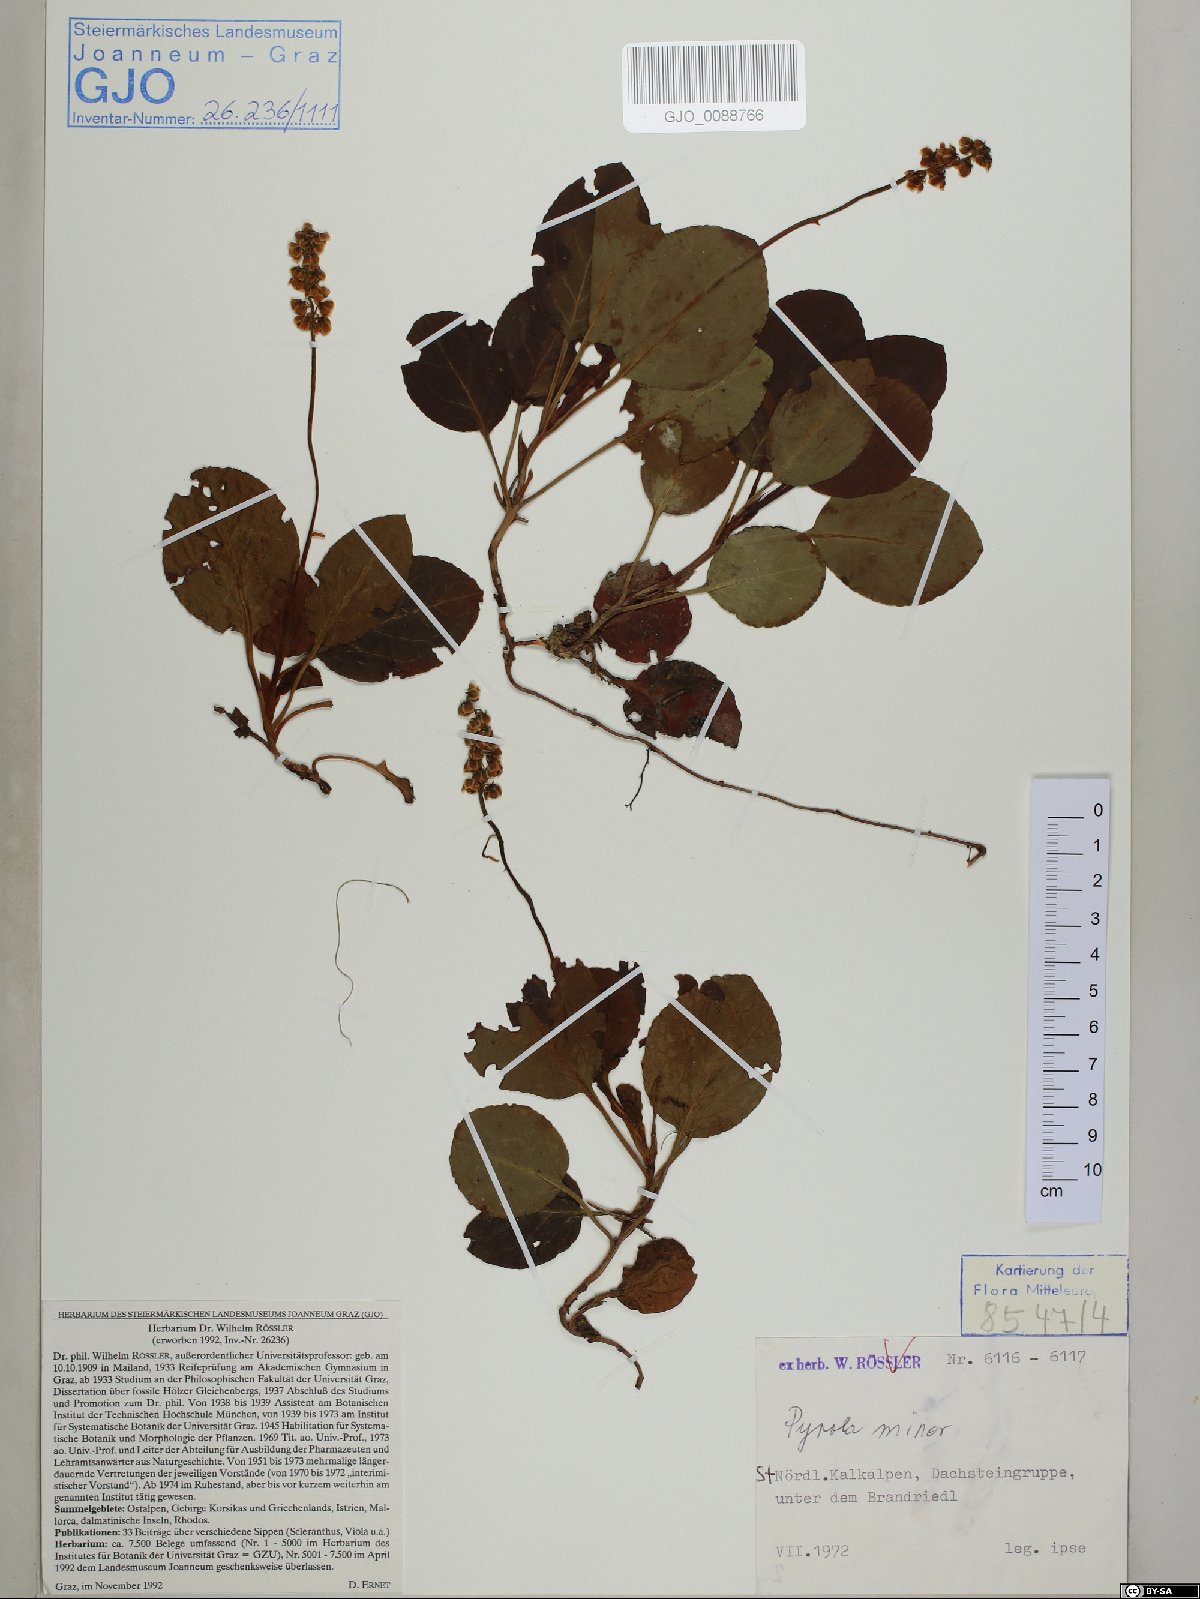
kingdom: Plantae
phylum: Tracheophyta
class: Magnoliopsida
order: Ericales
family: Ericaceae
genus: Pyrola
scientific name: Pyrola minor
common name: Common wintergreen
